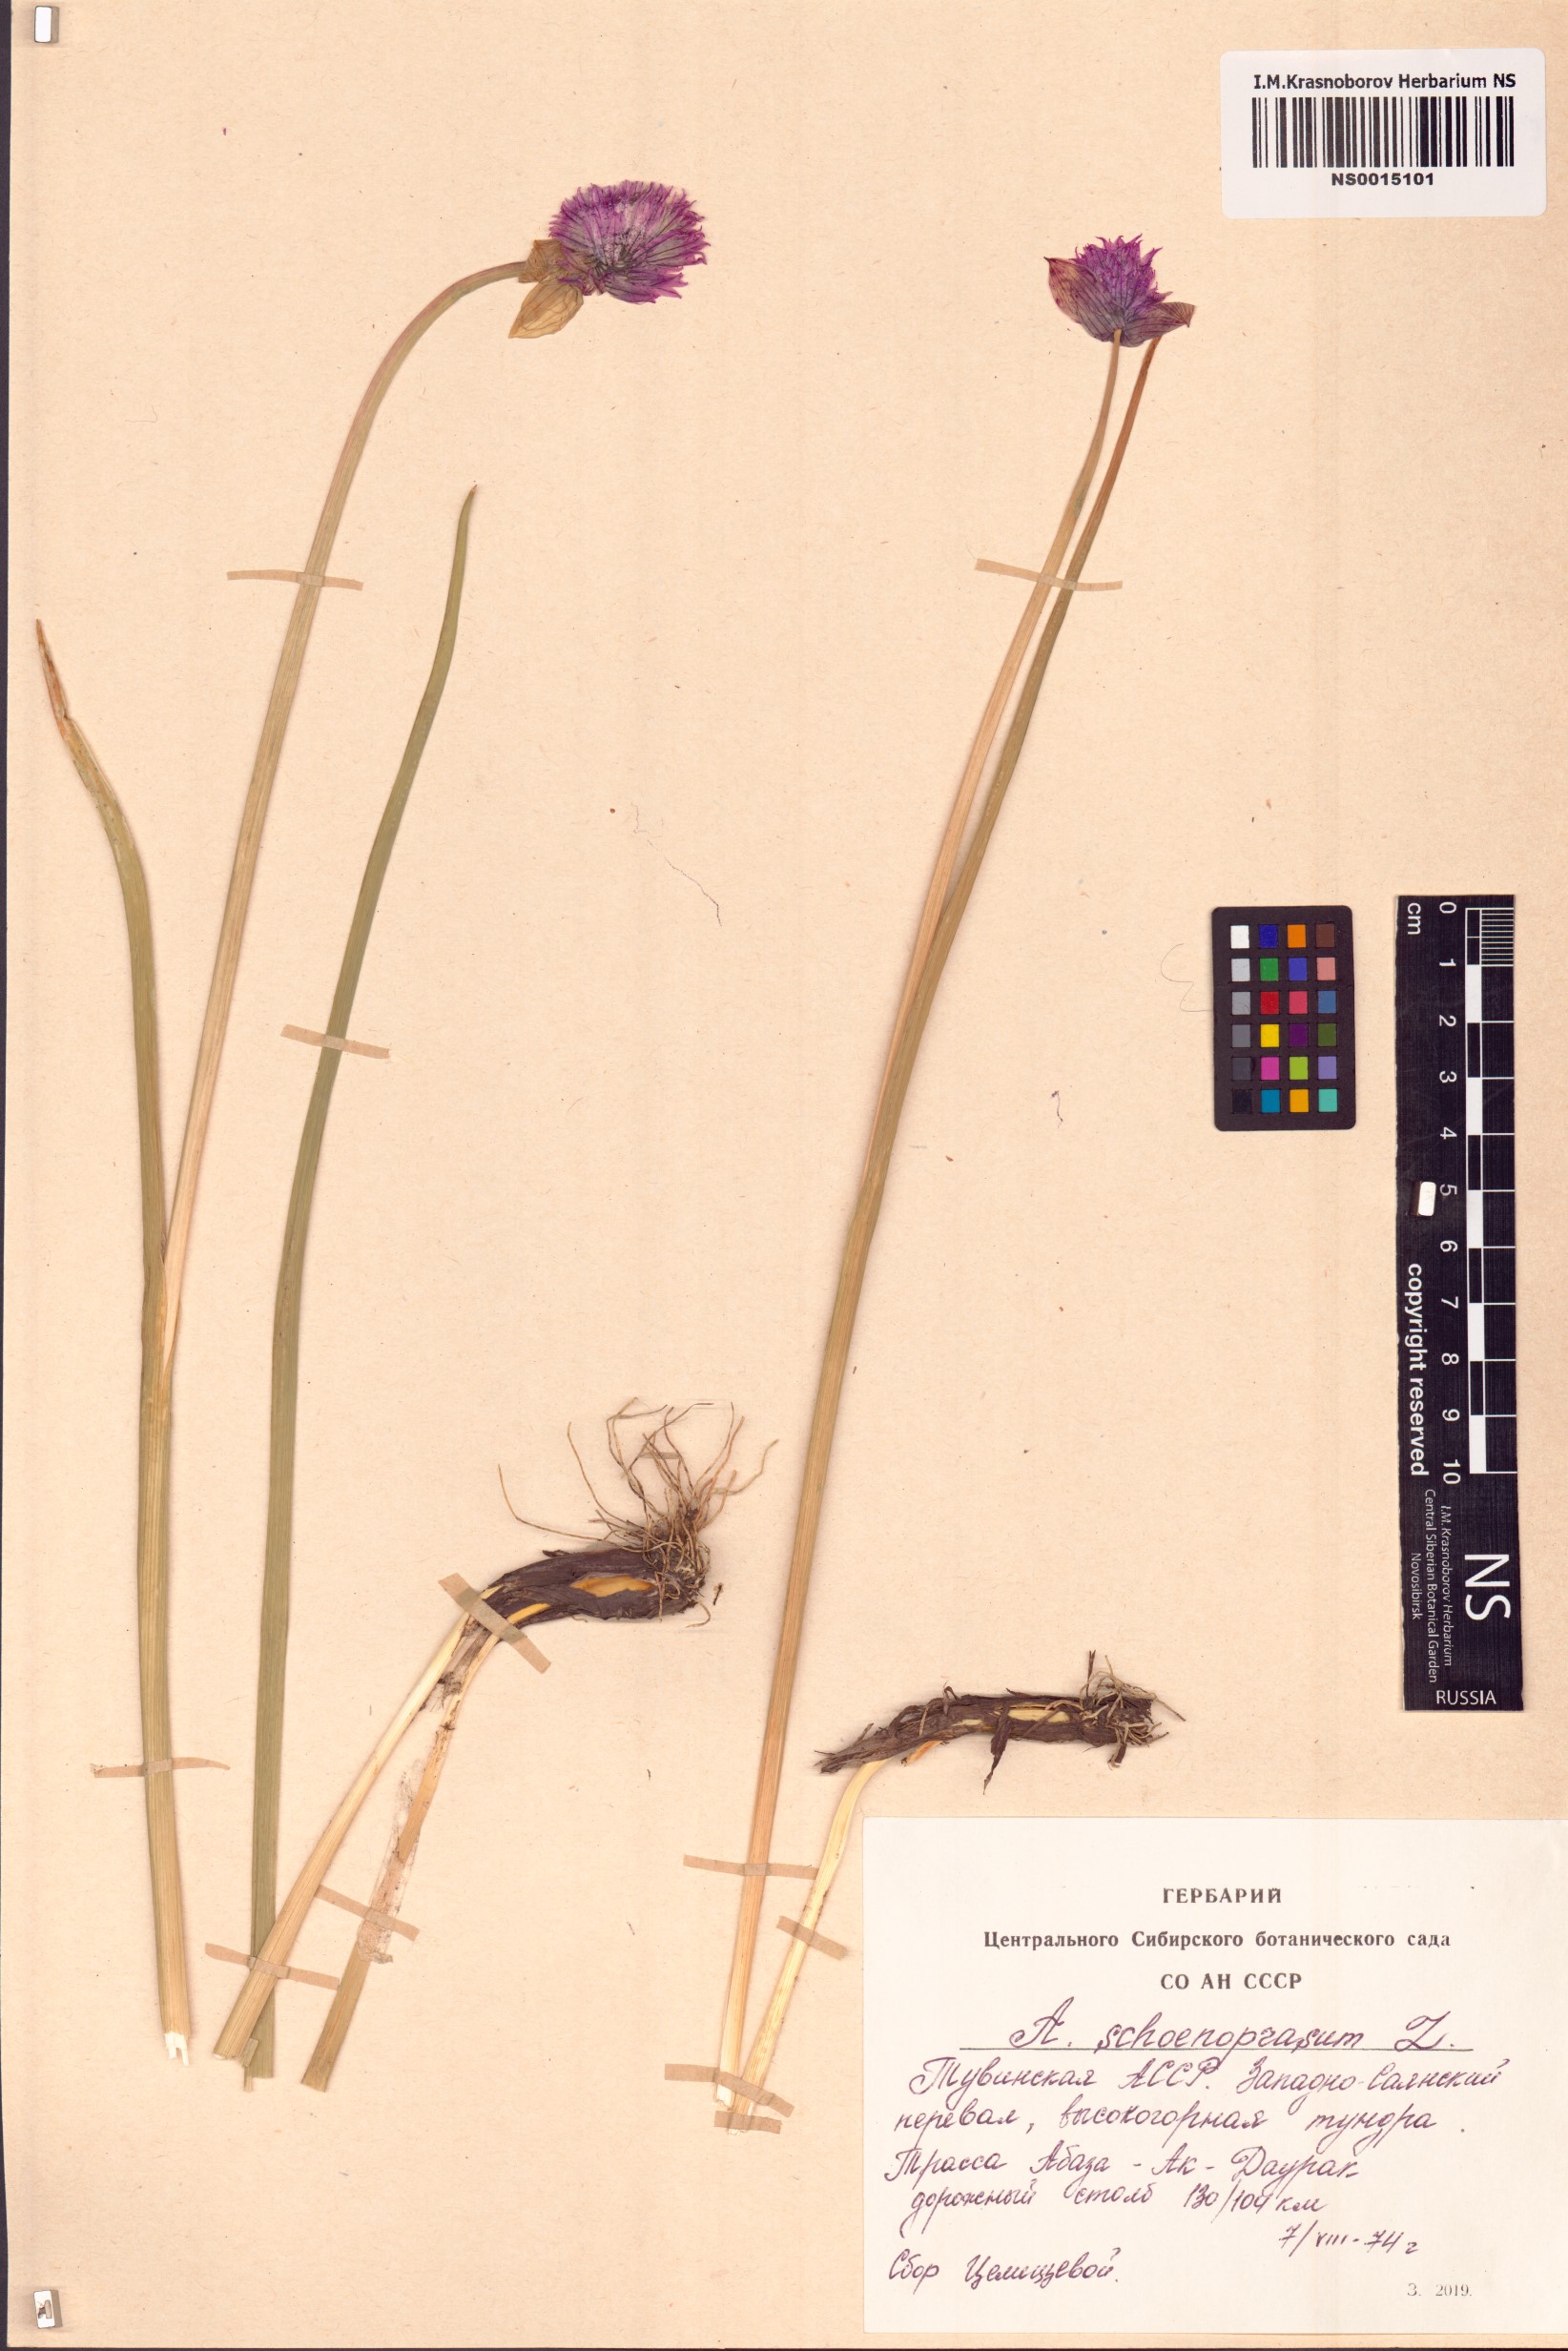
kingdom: Plantae
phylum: Tracheophyta
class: Liliopsida
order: Asparagales
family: Amaryllidaceae
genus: Allium
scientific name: Allium schoenoprasum
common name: Chives
